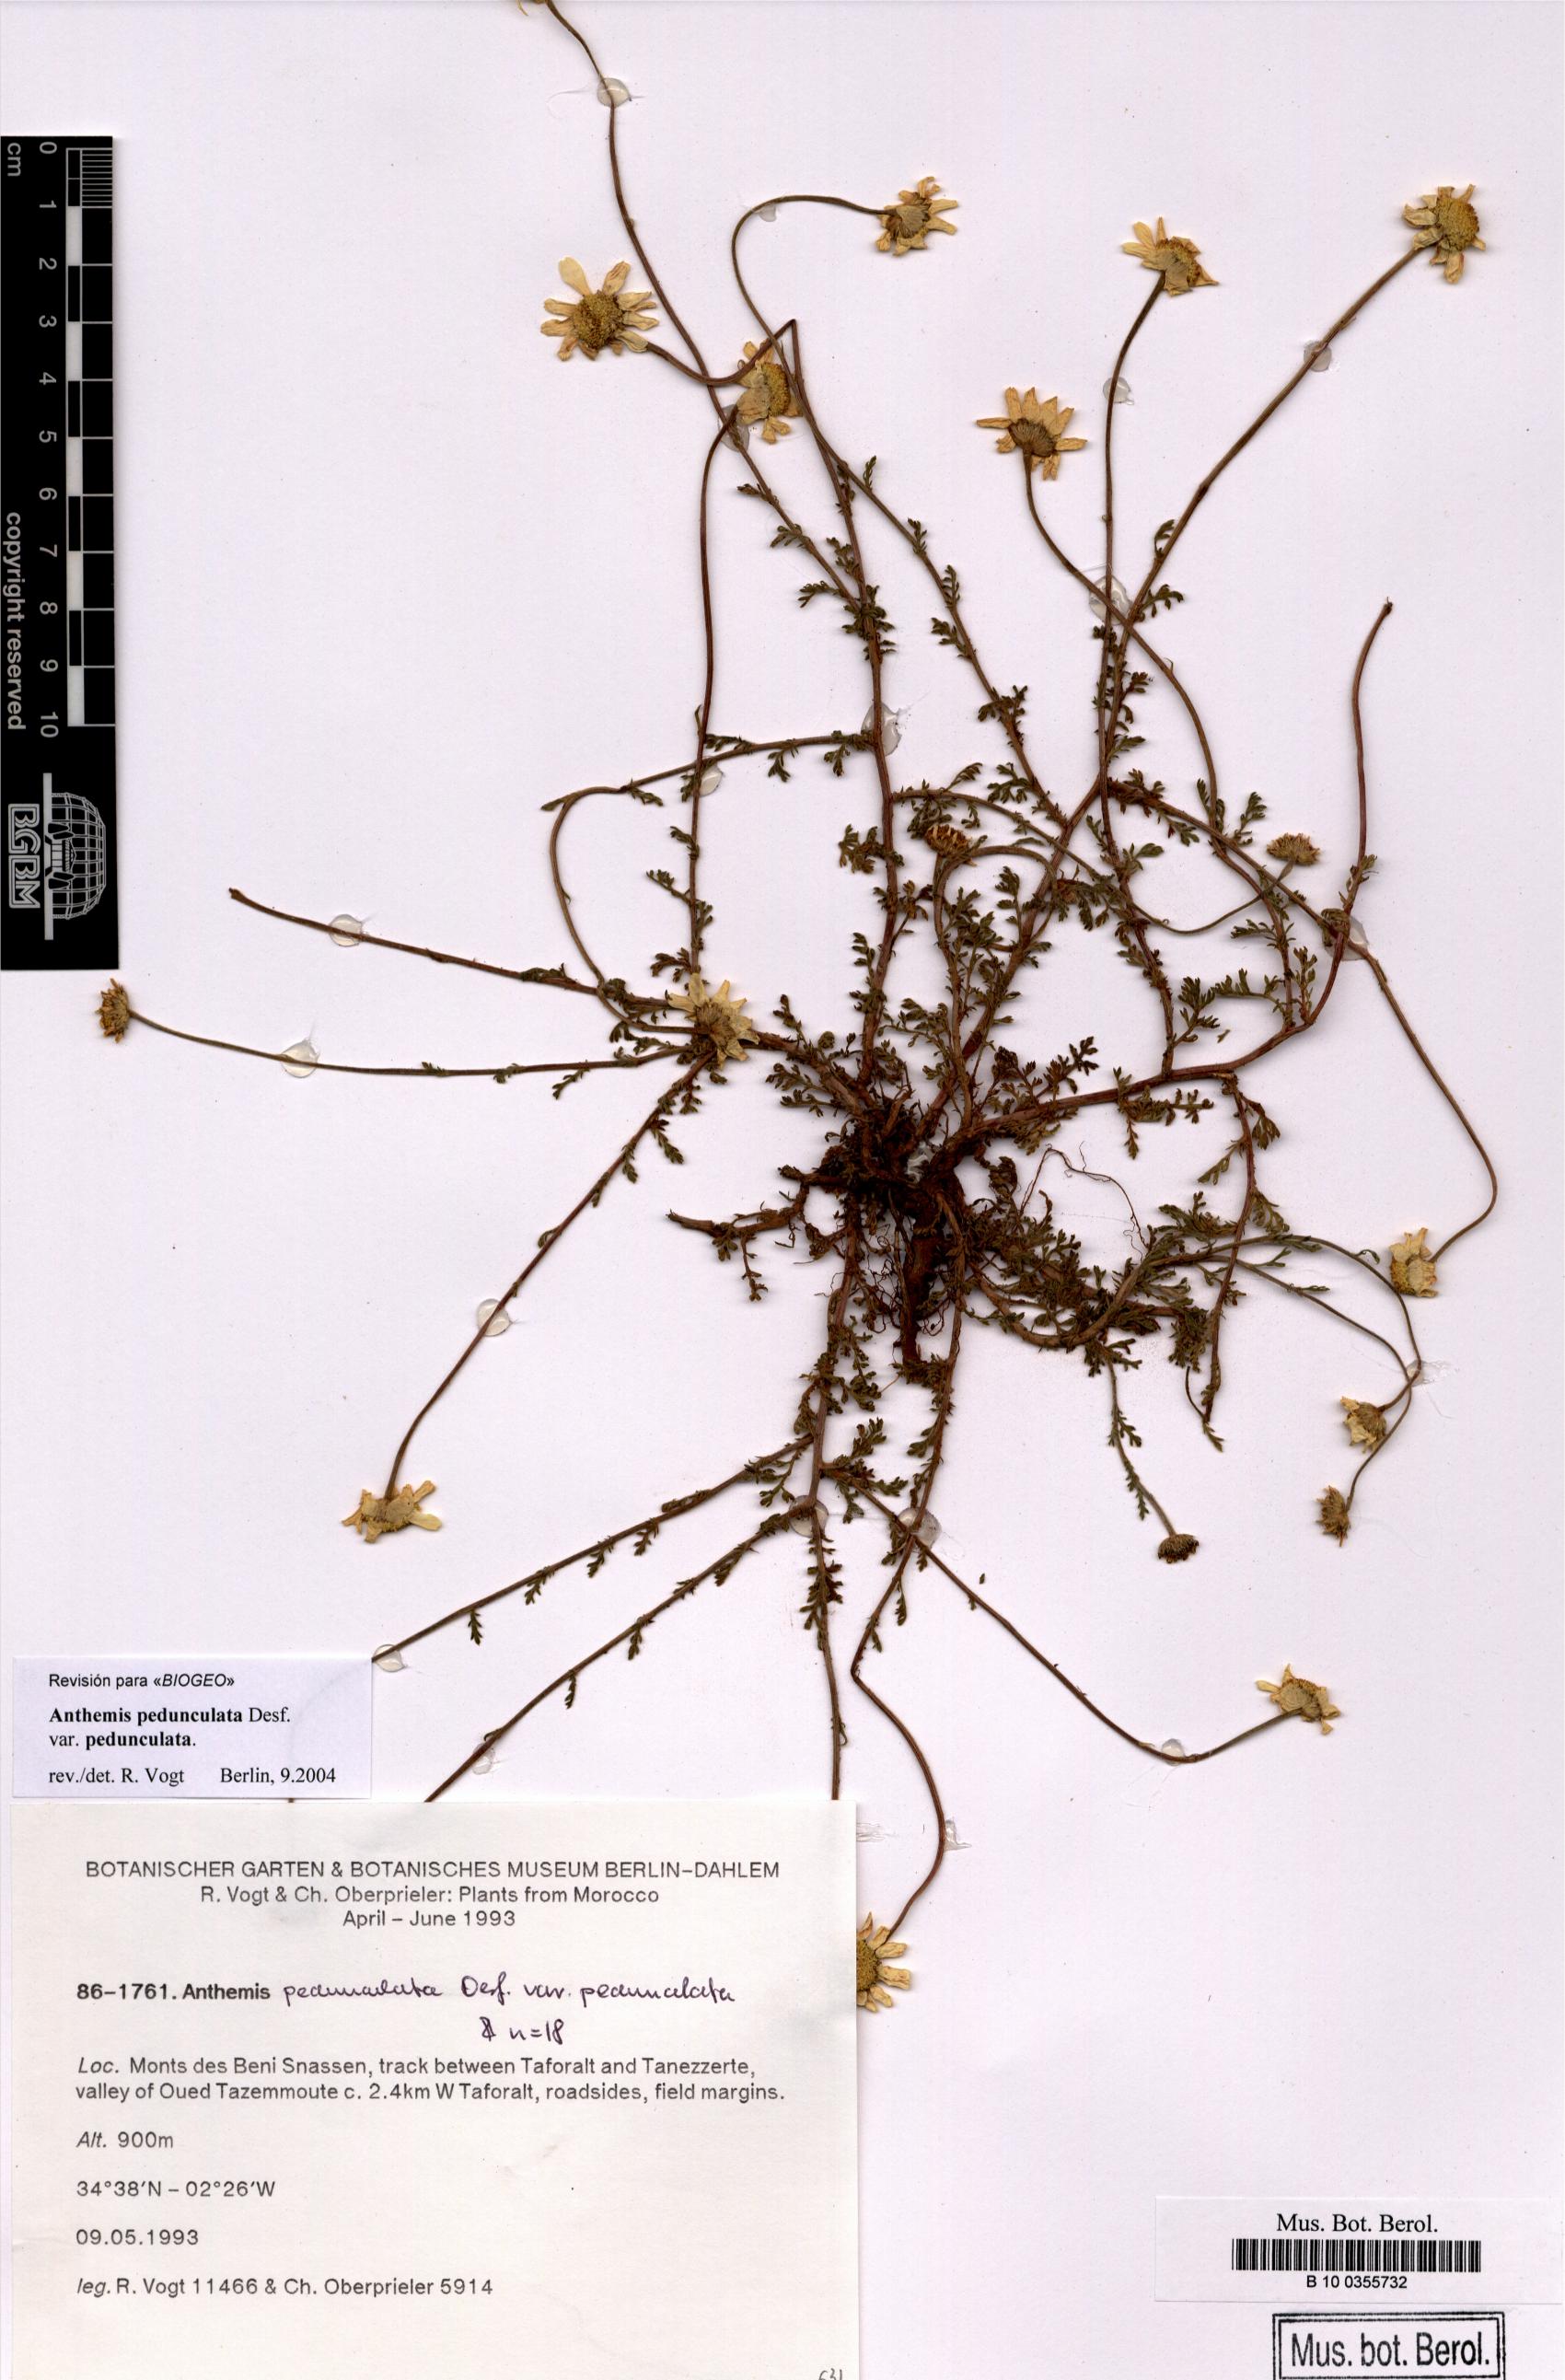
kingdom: Plantae
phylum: Tracheophyta
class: Magnoliopsida
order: Asterales
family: Asteraceae
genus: Anthemis
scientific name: Anthemis pedunculata
